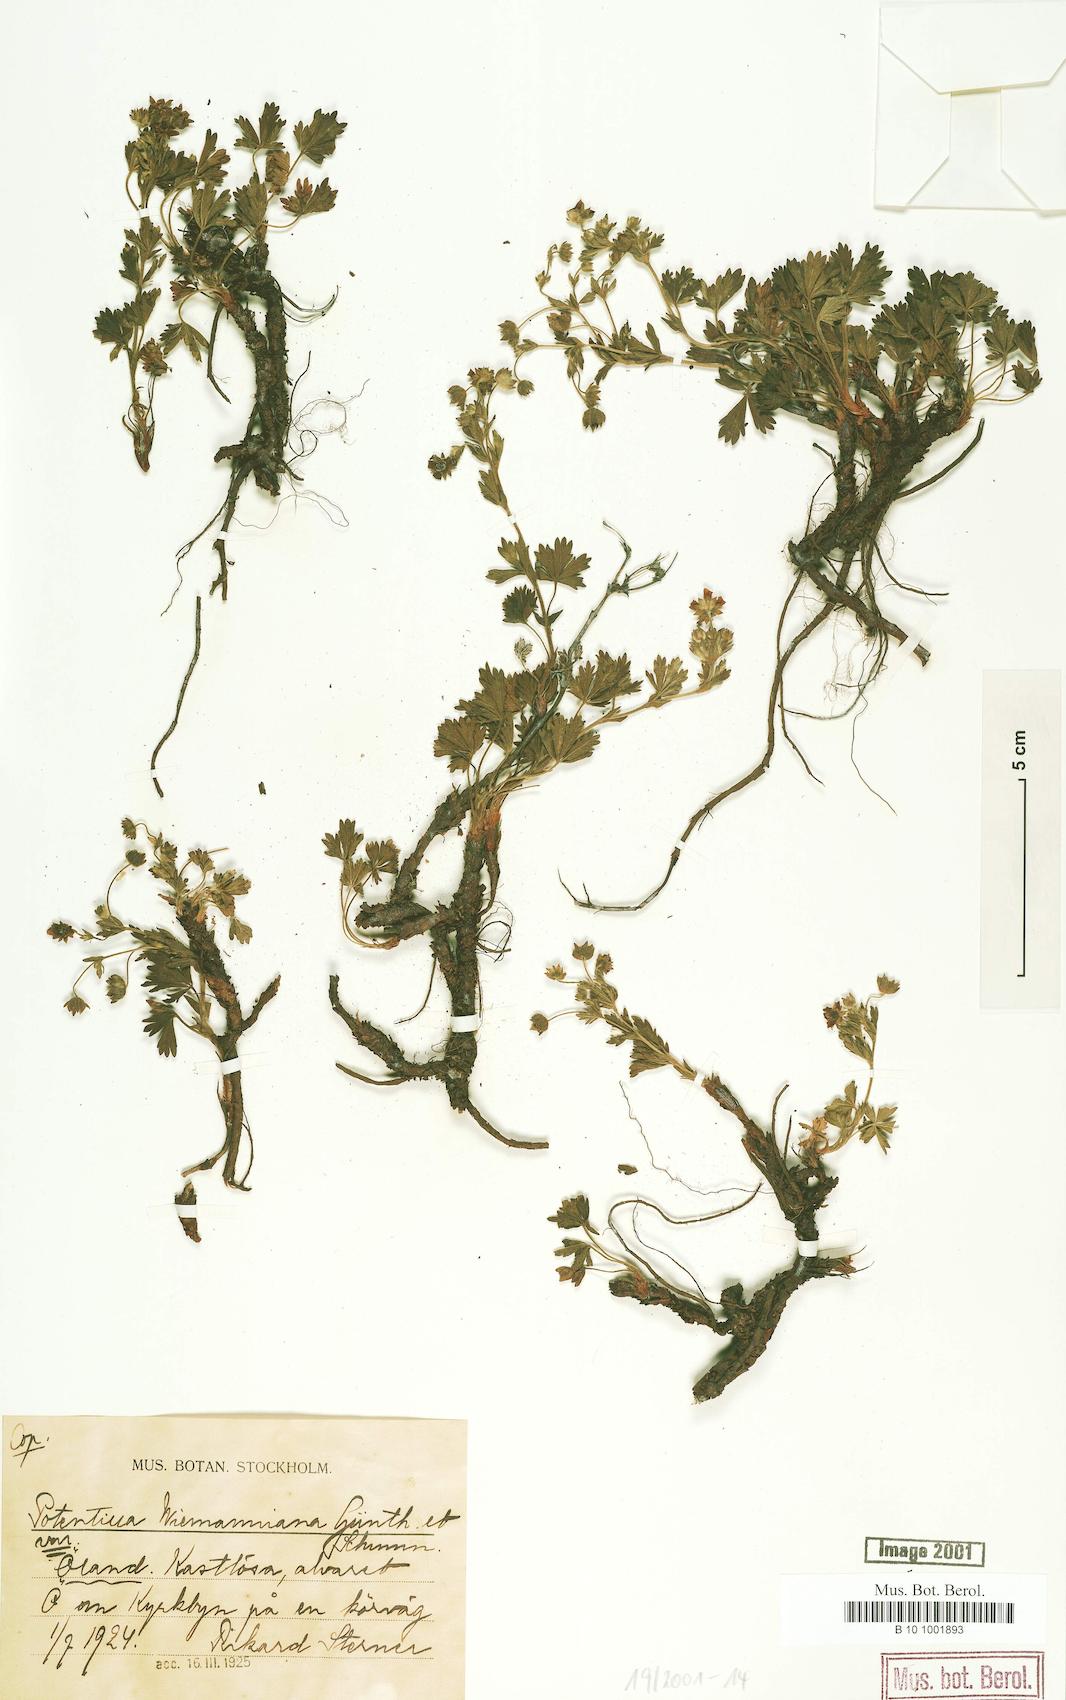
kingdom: Plantae
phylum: Tracheophyta
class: Magnoliopsida
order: Rosales
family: Rosaceae
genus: Potentilla
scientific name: Potentilla
